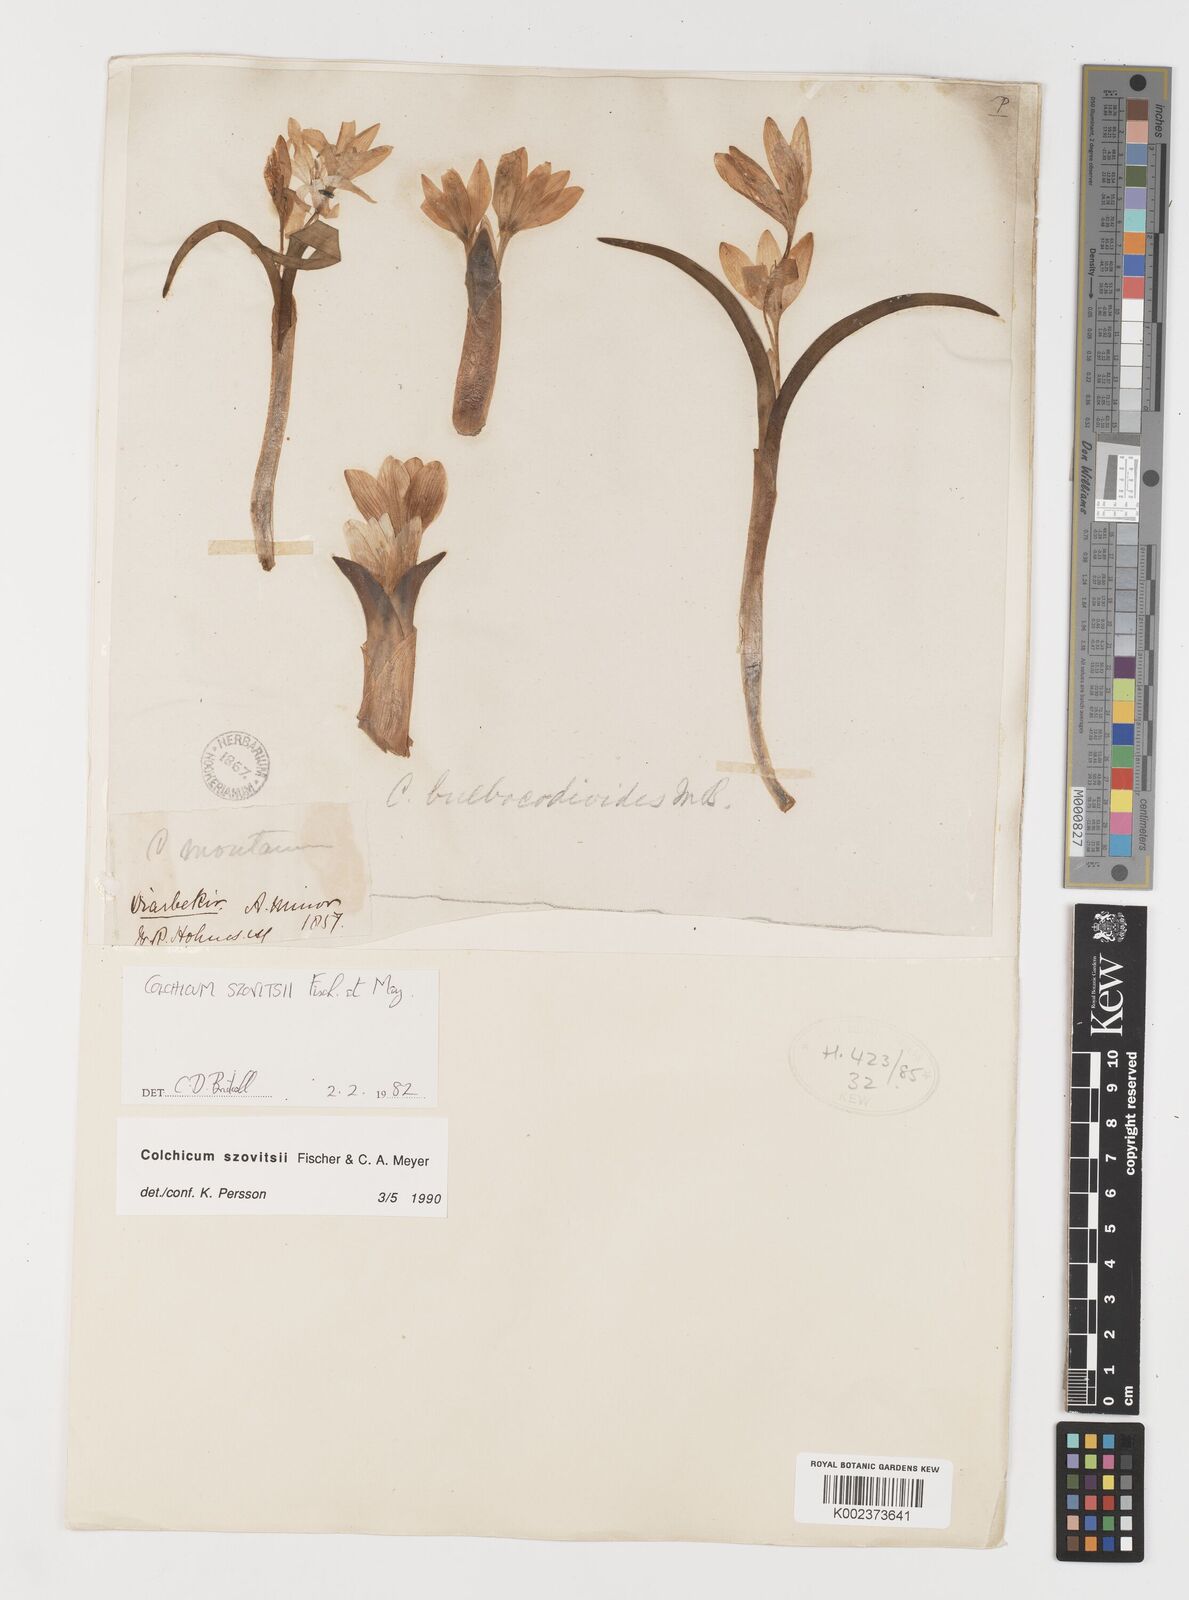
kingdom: Plantae
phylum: Tracheophyta
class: Liliopsida
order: Liliales
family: Colchicaceae
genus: Colchicum
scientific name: Colchicum szovitsii
